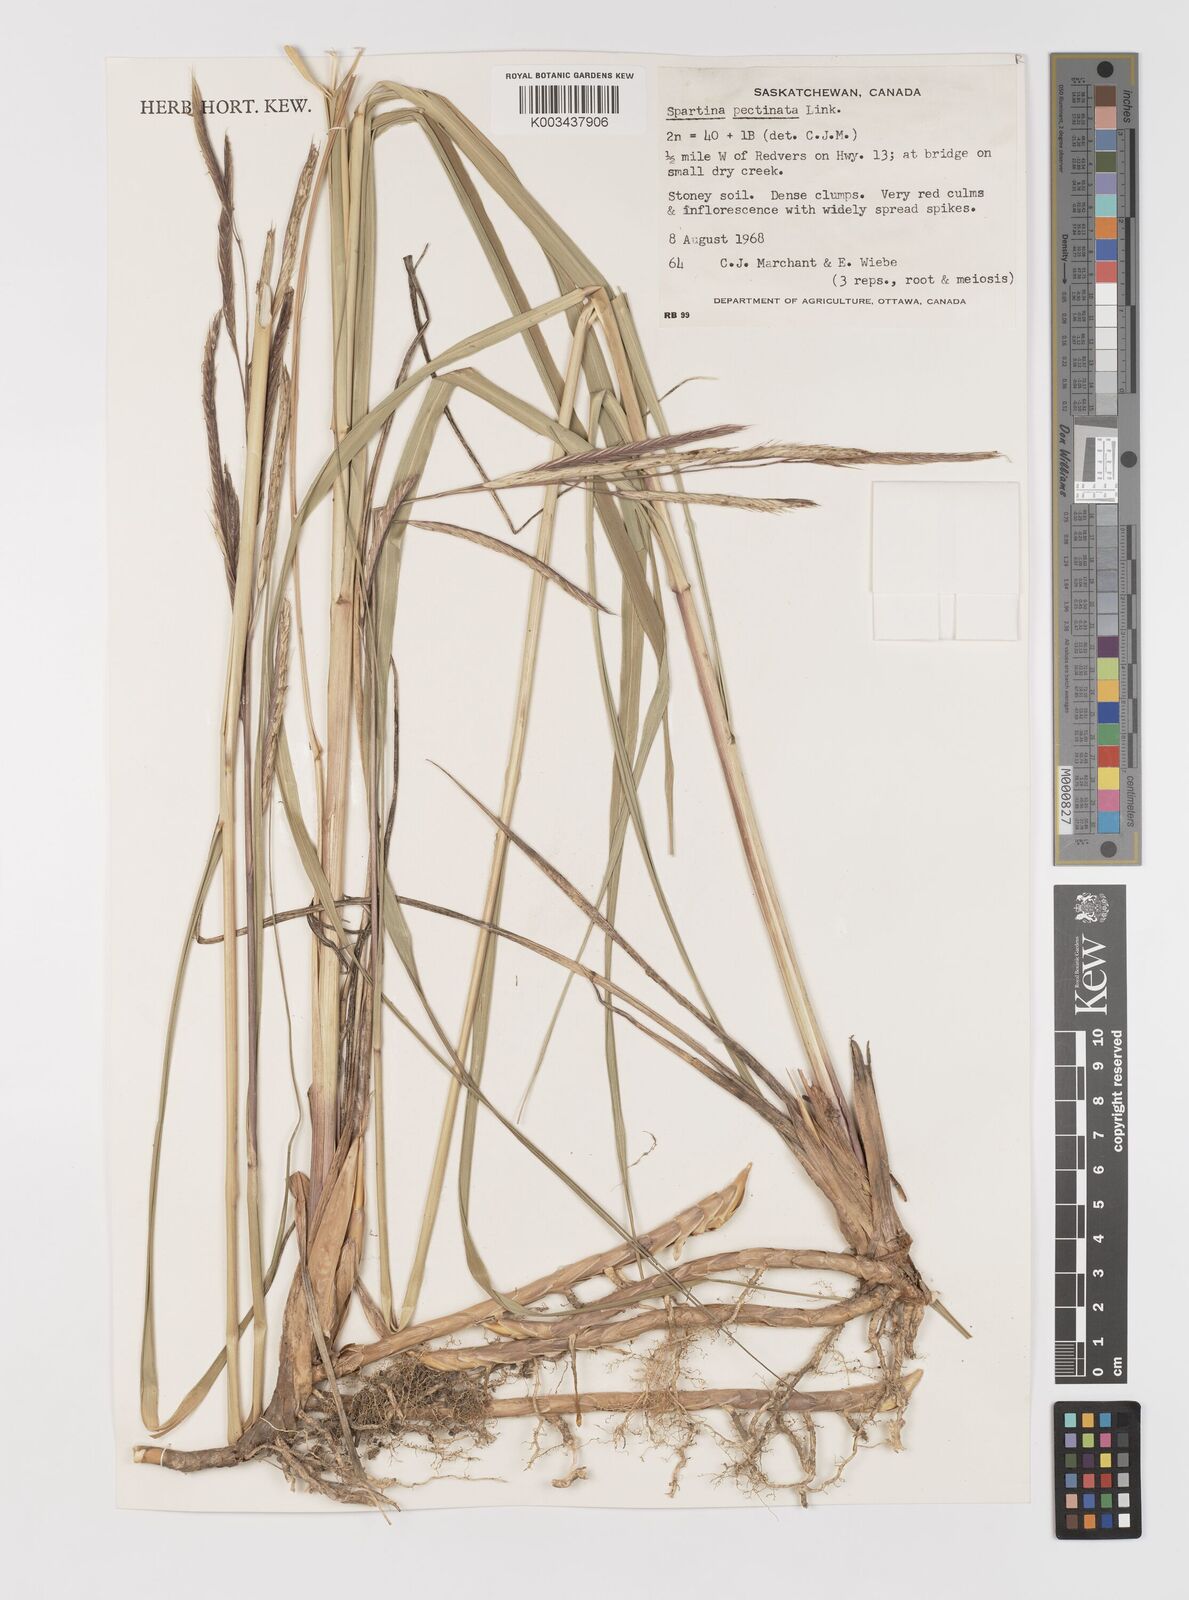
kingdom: Plantae
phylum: Tracheophyta
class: Liliopsida
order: Poales
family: Poaceae
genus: Sporobolus
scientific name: Sporobolus michauxianus
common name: Freshwater cordgrass
